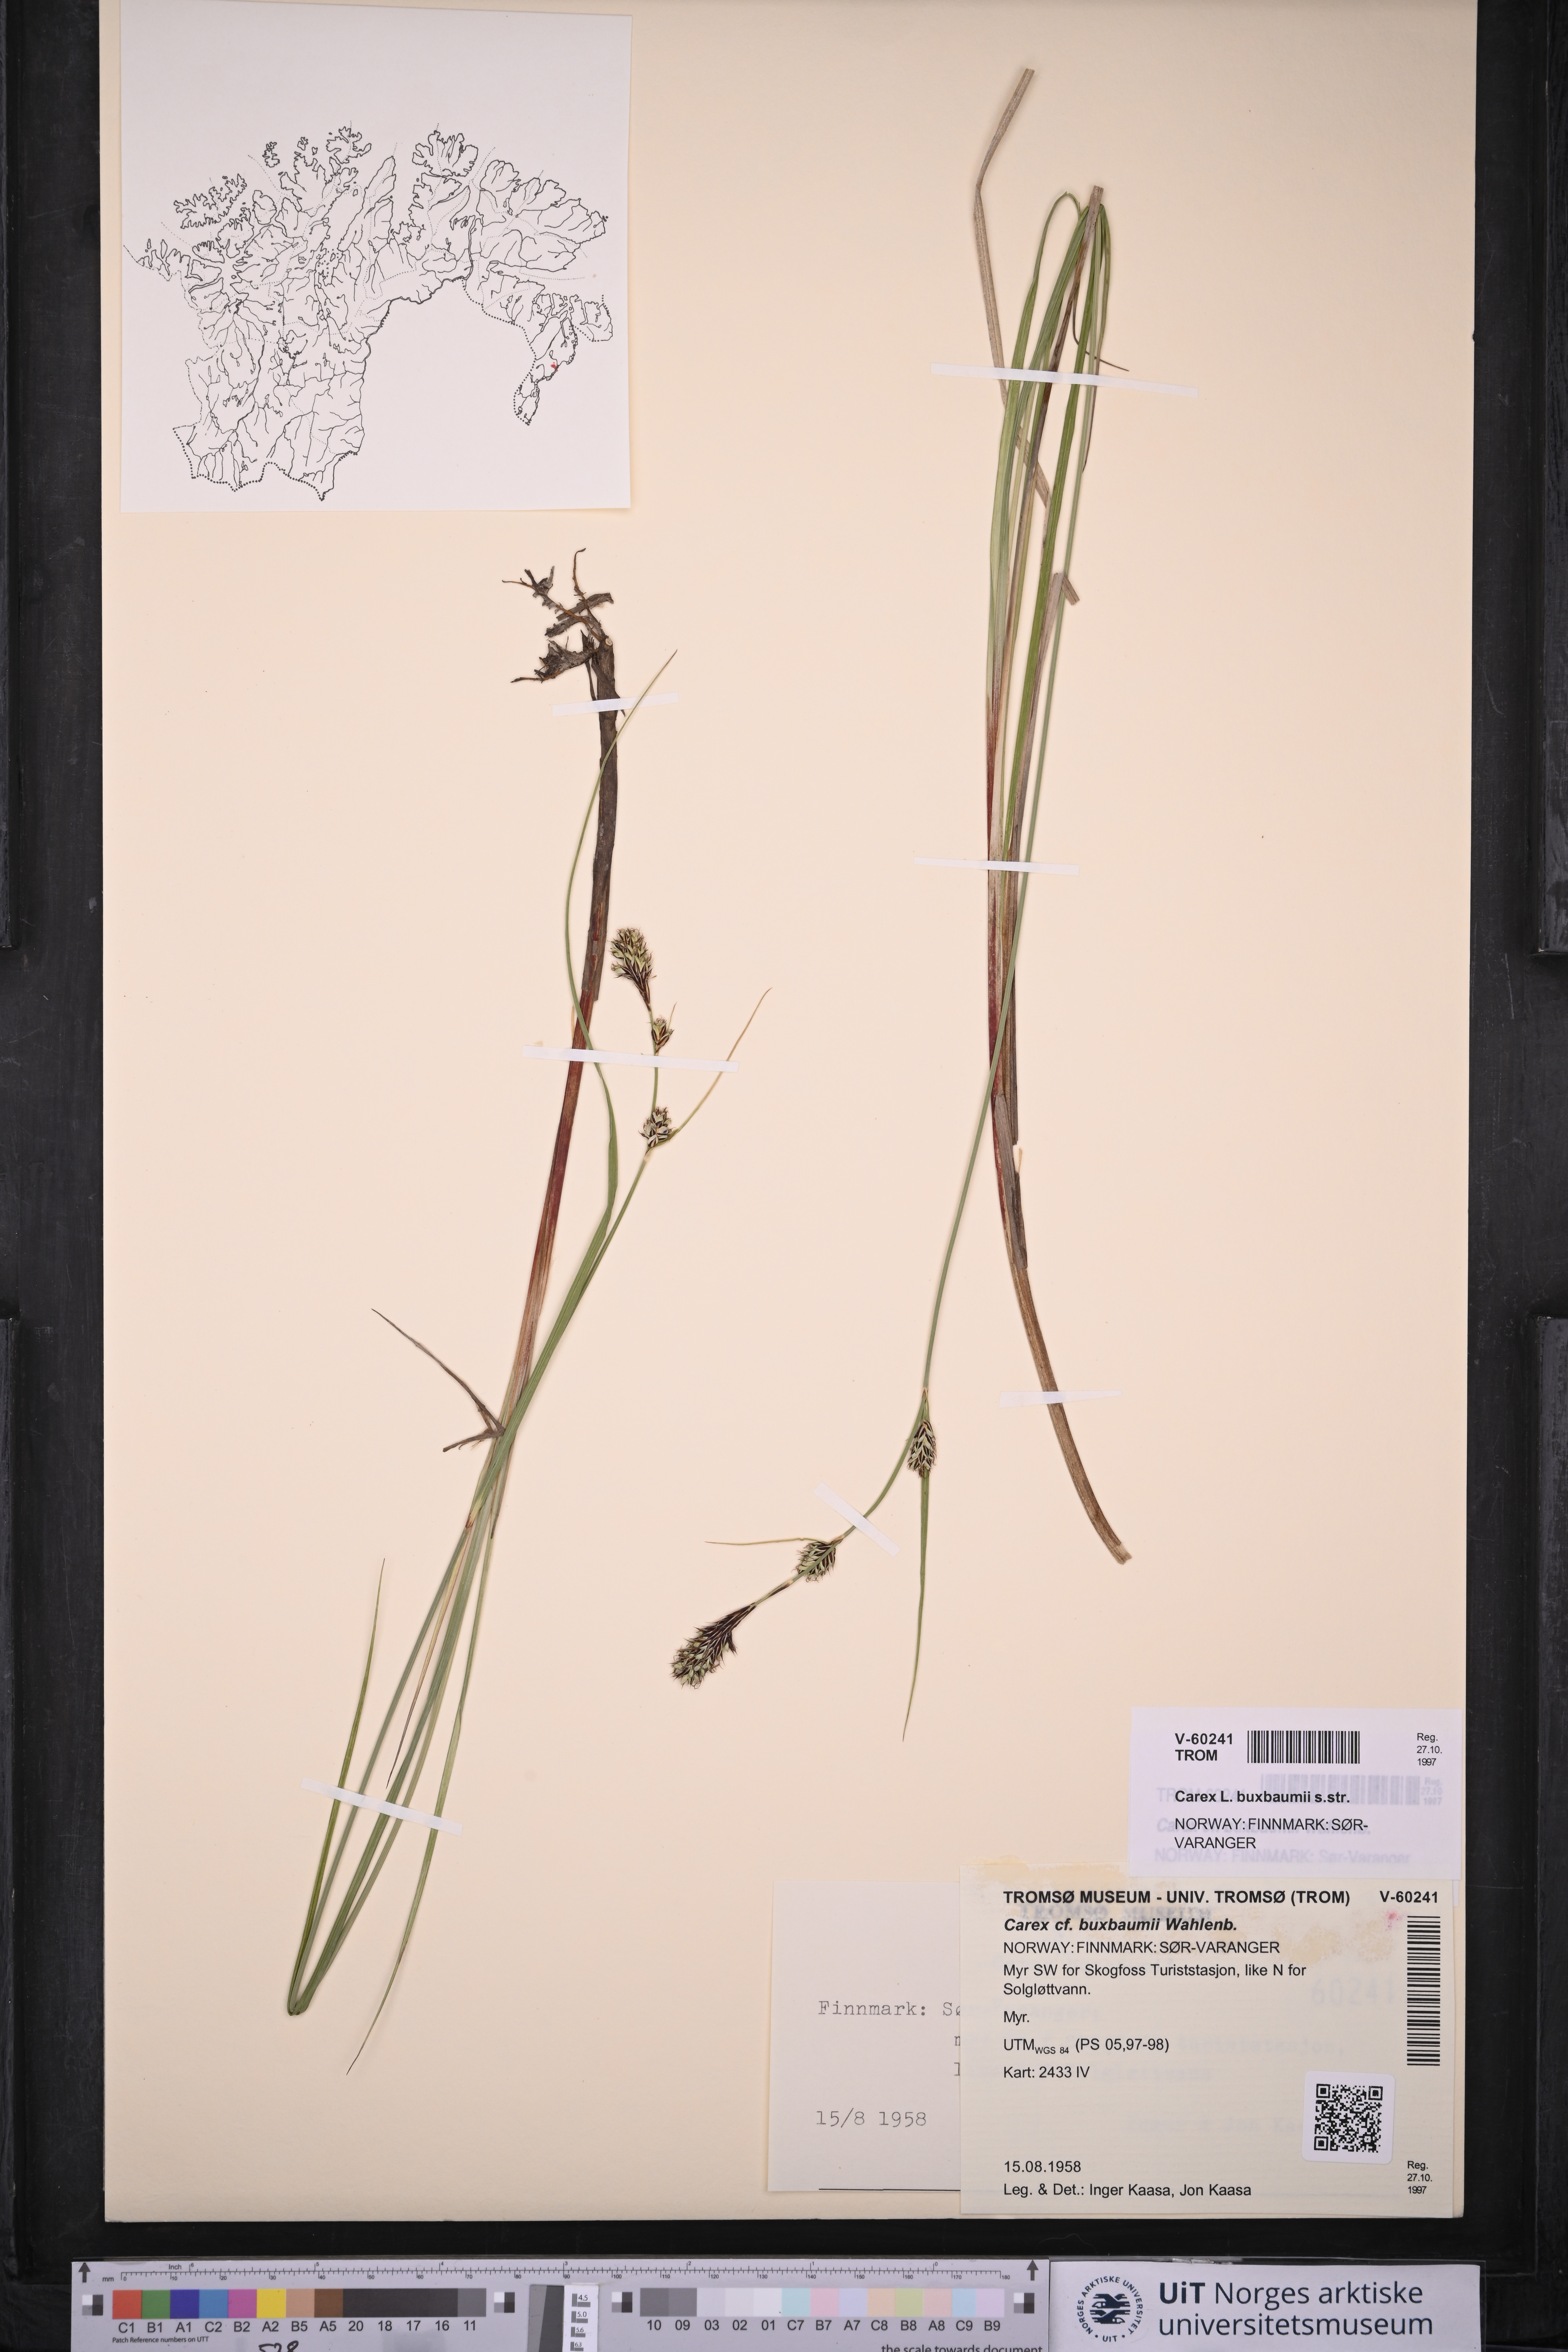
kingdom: Plantae
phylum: Tracheophyta
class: Liliopsida
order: Poales
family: Cyperaceae
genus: Carex
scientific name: Carex buxbaumii
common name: Club sedge
